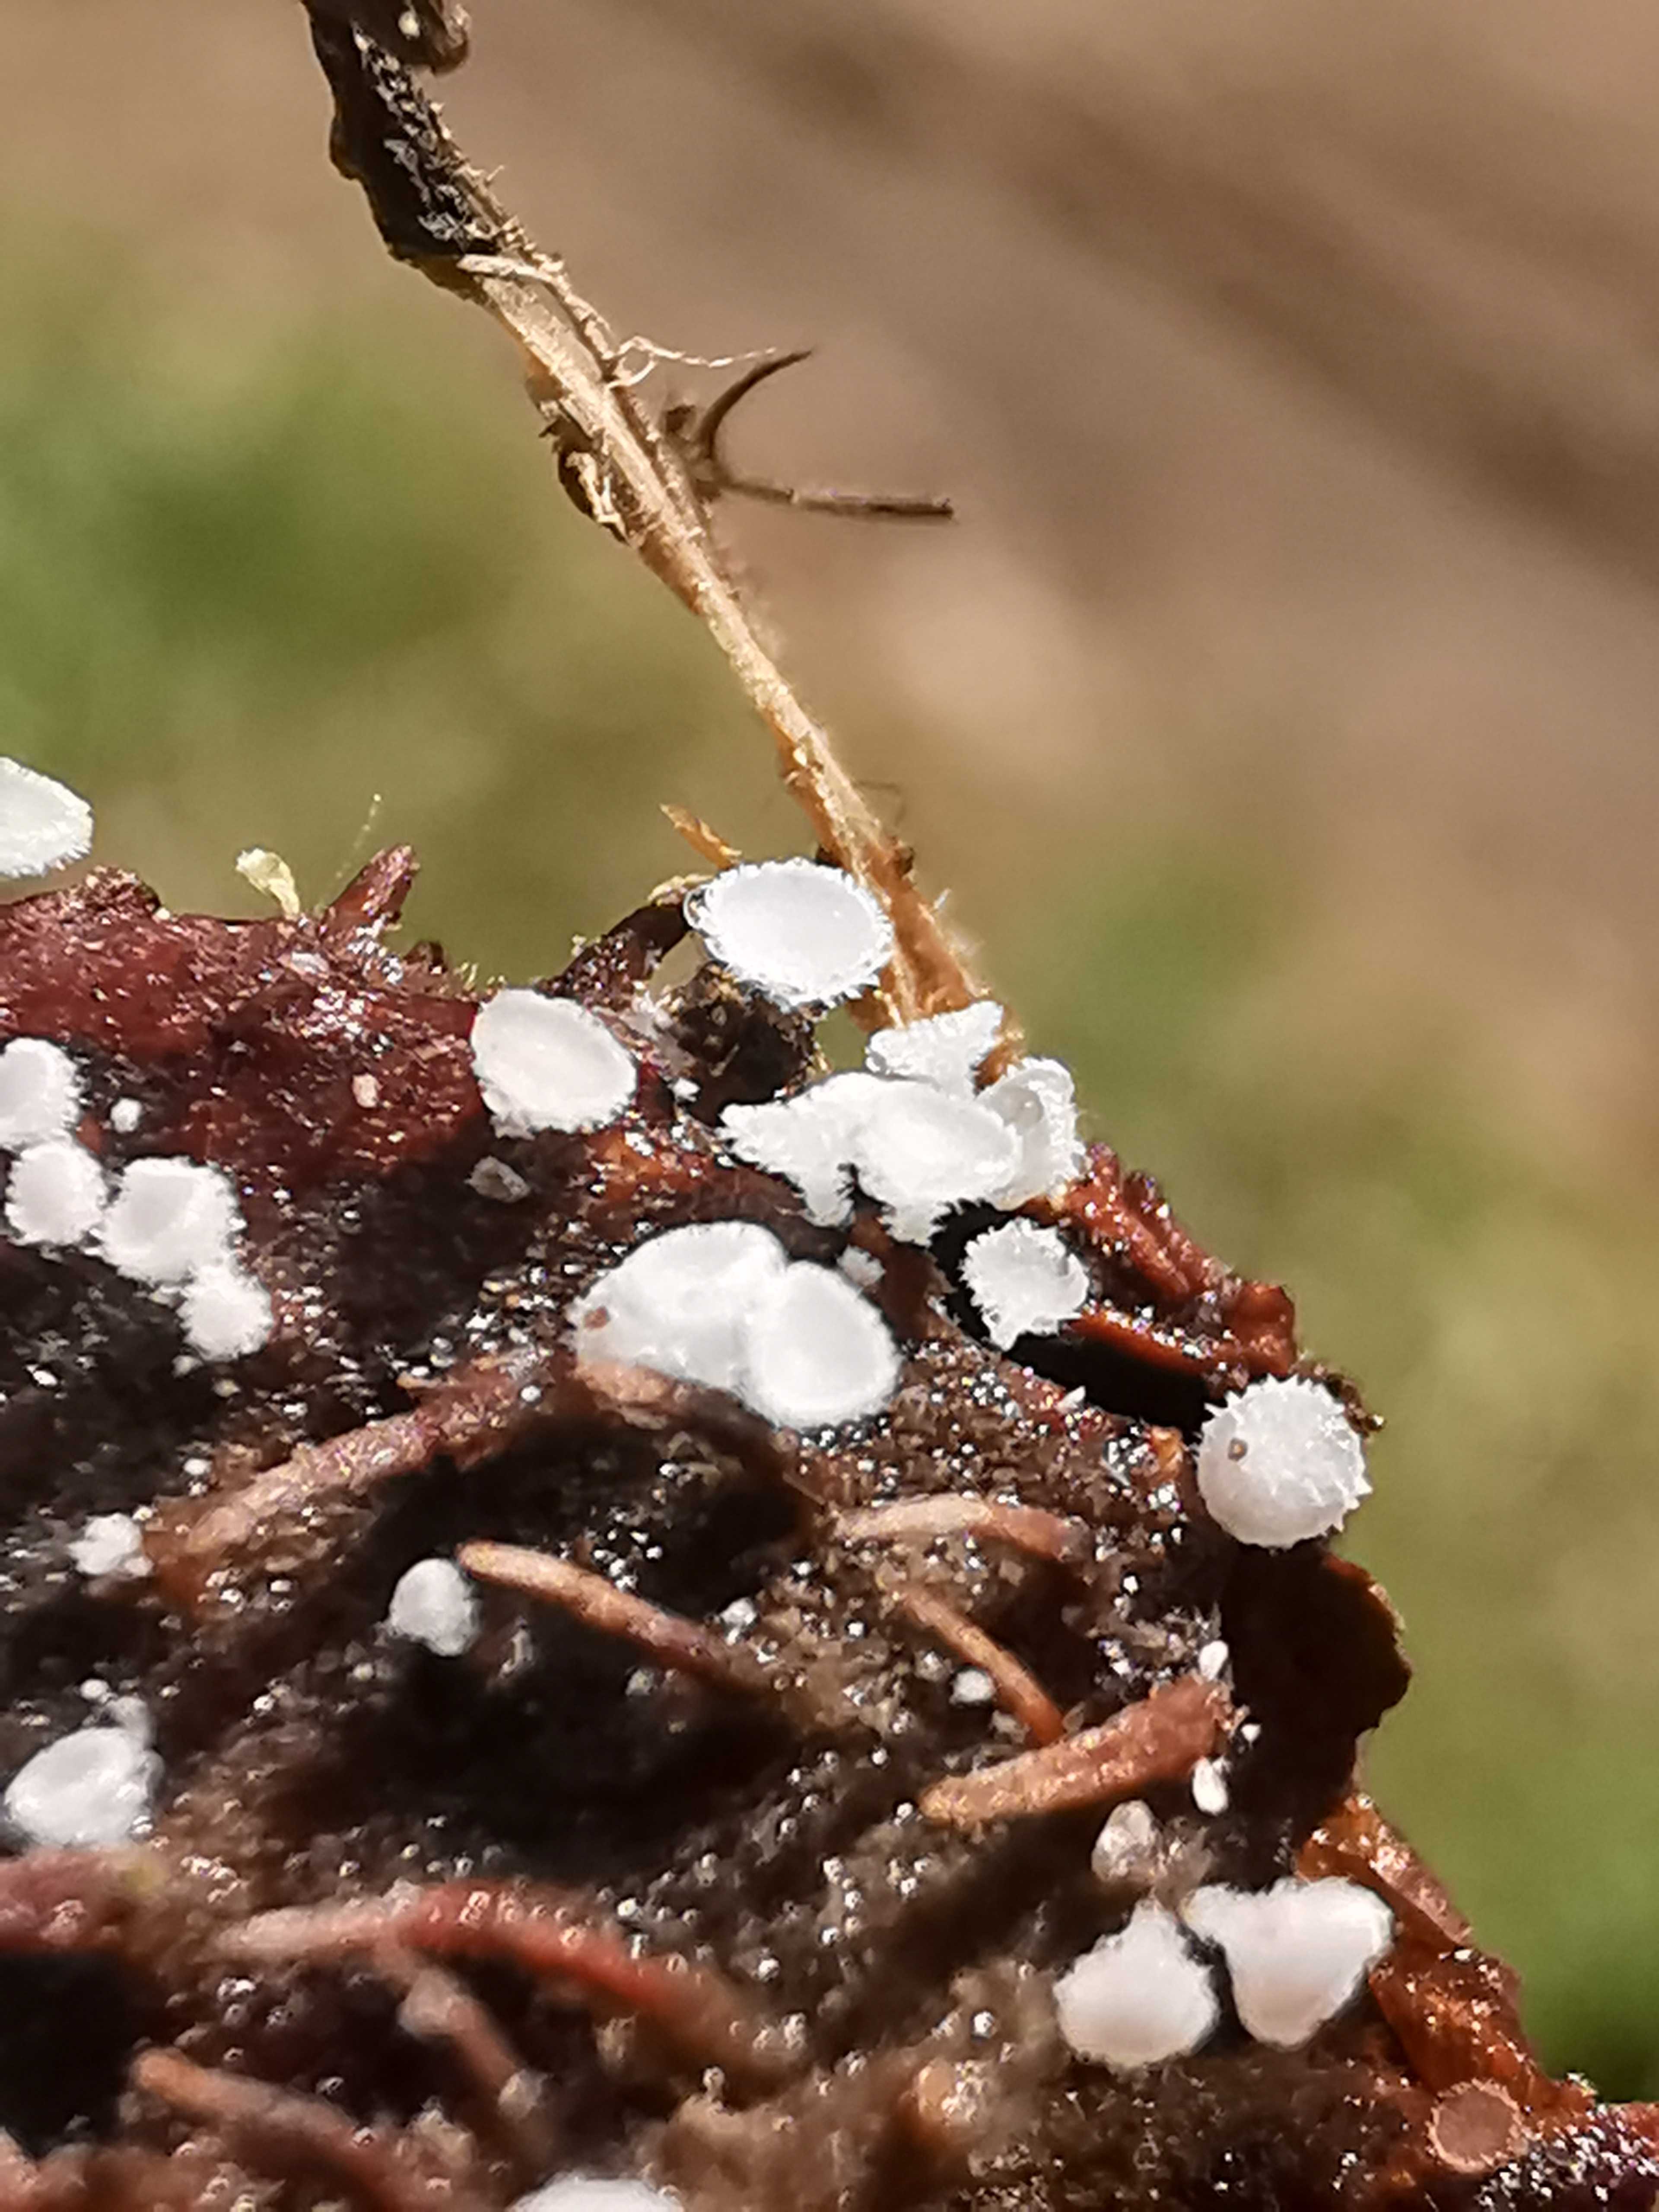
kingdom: Fungi
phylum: Ascomycota
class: Leotiomycetes
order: Helotiales
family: Lachnaceae
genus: Lachnum
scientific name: Lachnum virgineum
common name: jomfru-frynseskive
